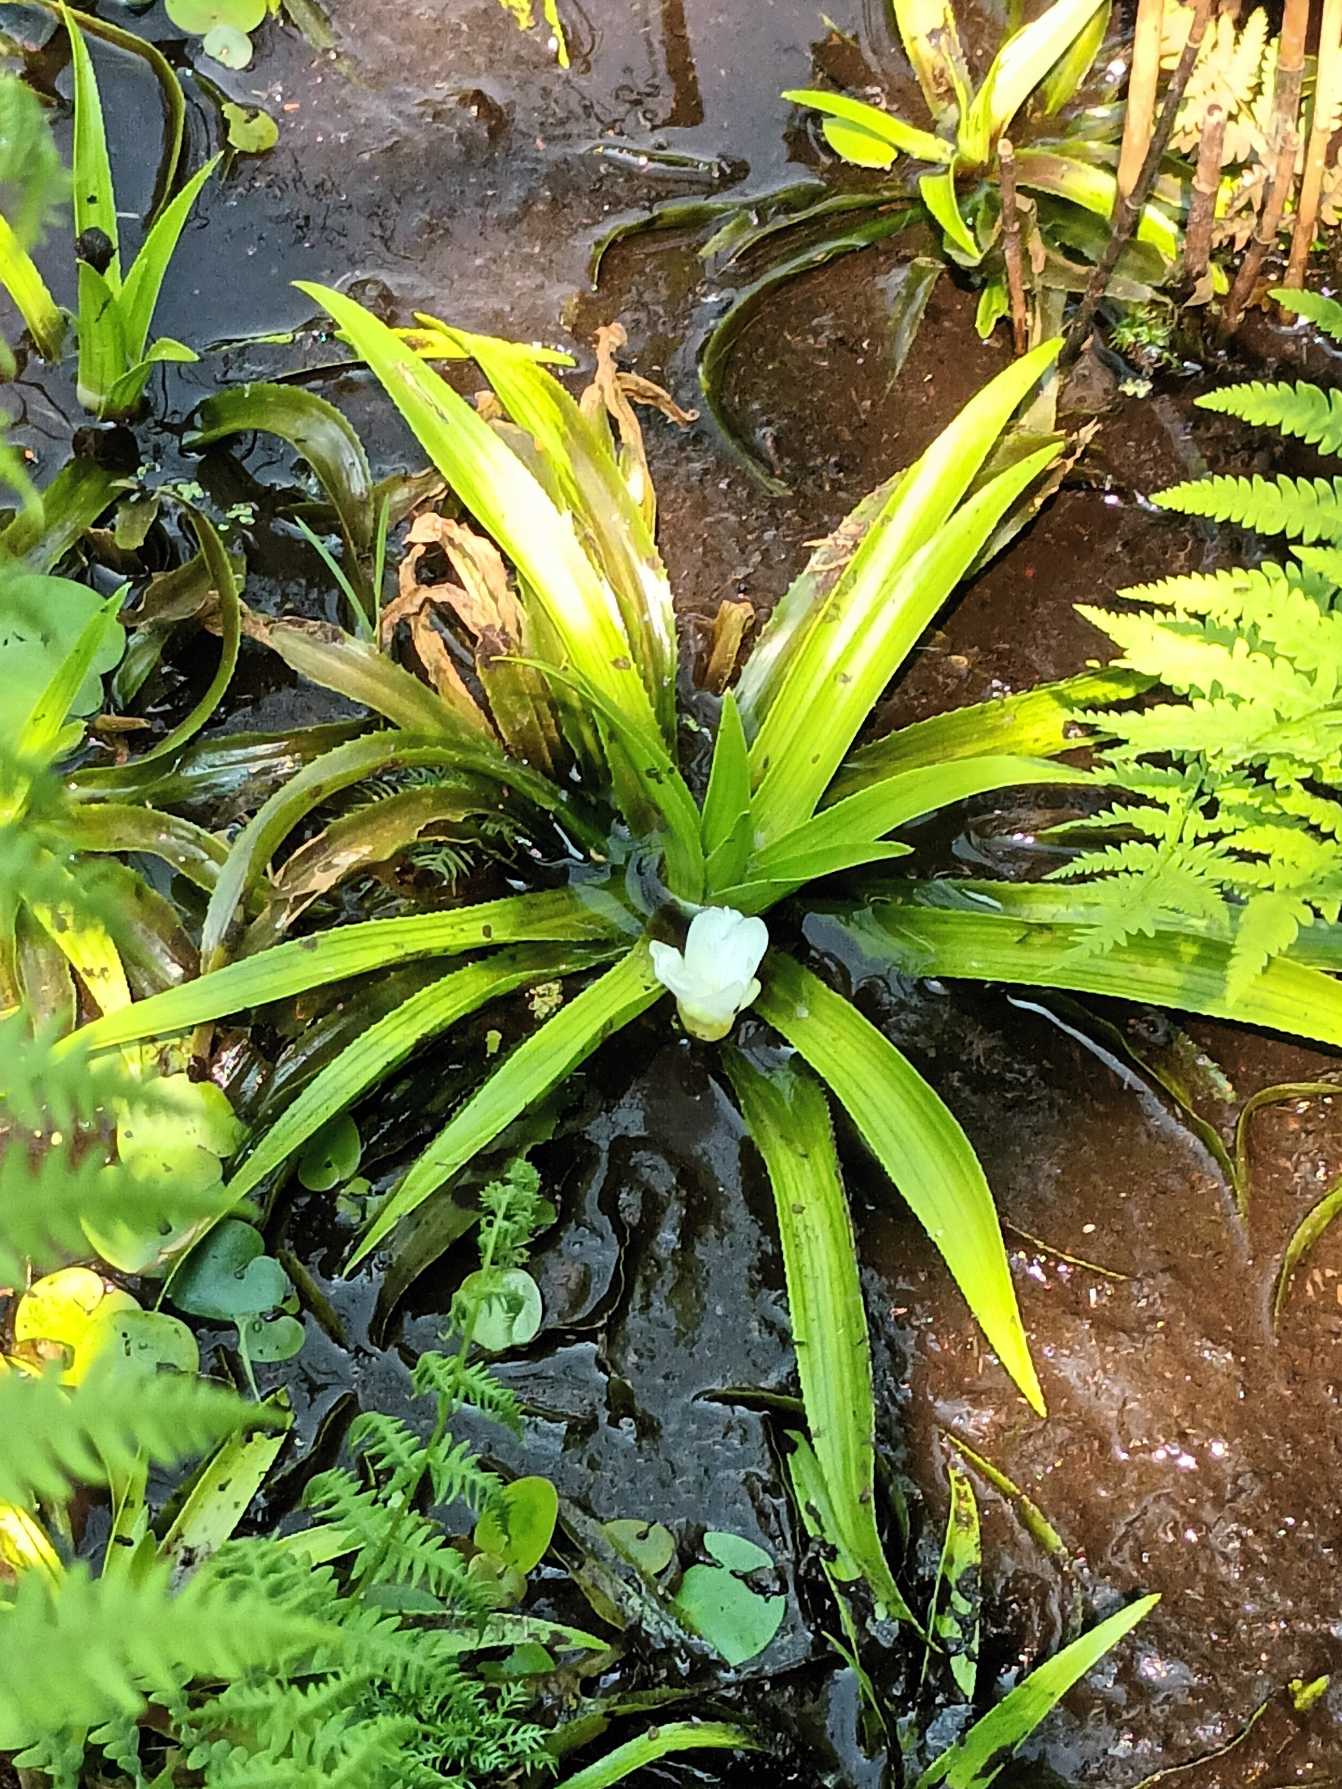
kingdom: Plantae
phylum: Tracheophyta
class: Liliopsida
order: Alismatales
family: Hydrocharitaceae
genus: Stratiotes
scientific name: Stratiotes aloides
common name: Krebseklo
